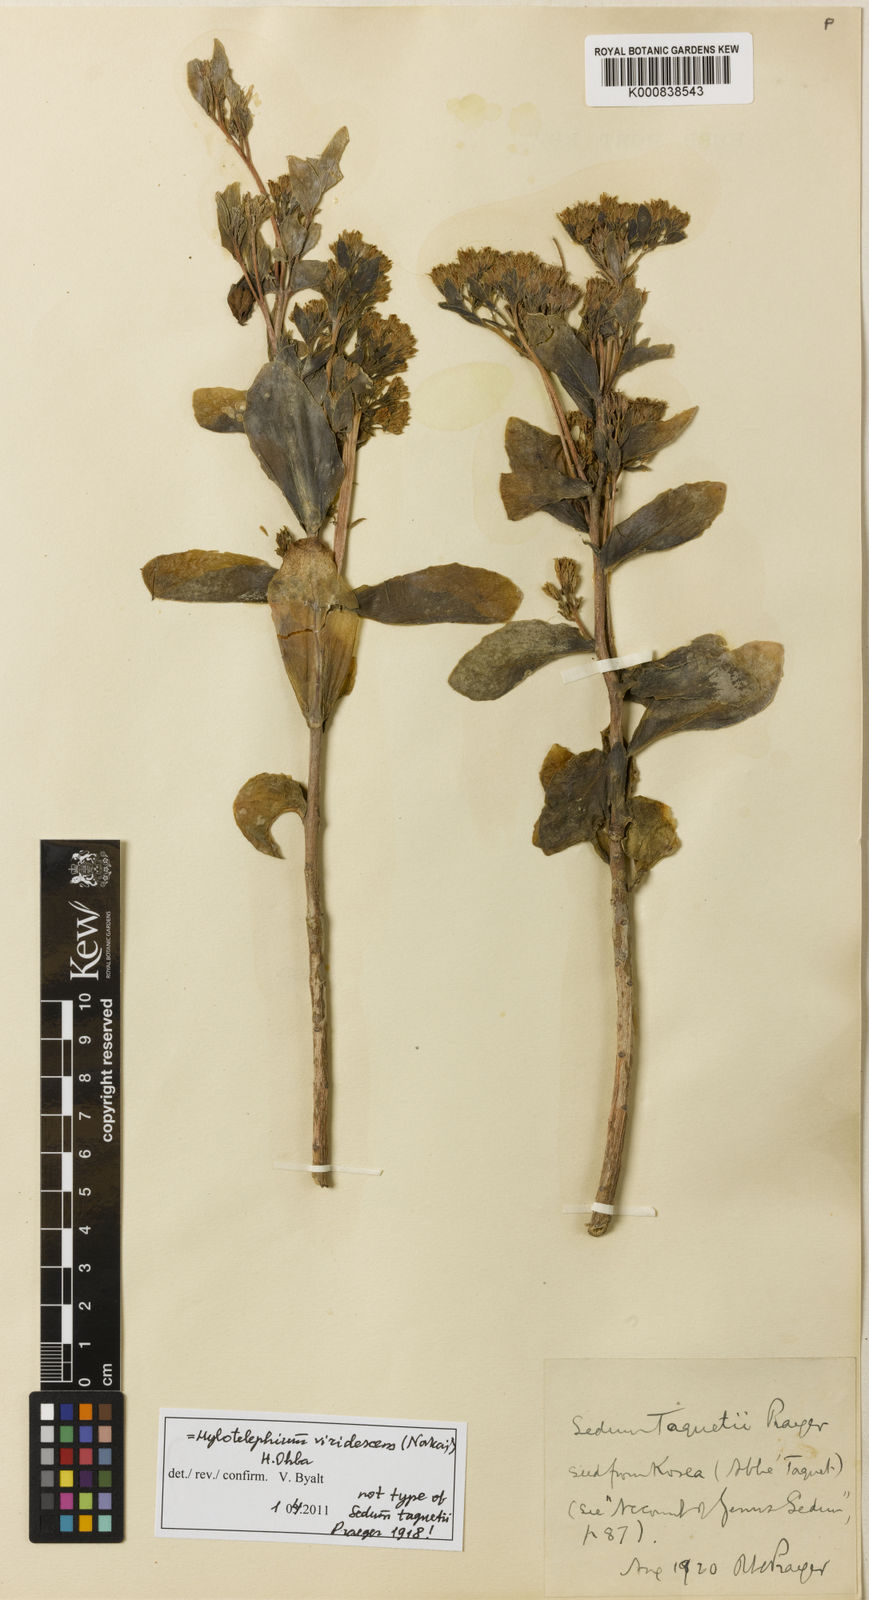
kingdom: Plantae
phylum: Tracheophyta
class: Magnoliopsida
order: Saxifragales
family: Crassulaceae
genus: Hylotelephium
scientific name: Hylotelephium
